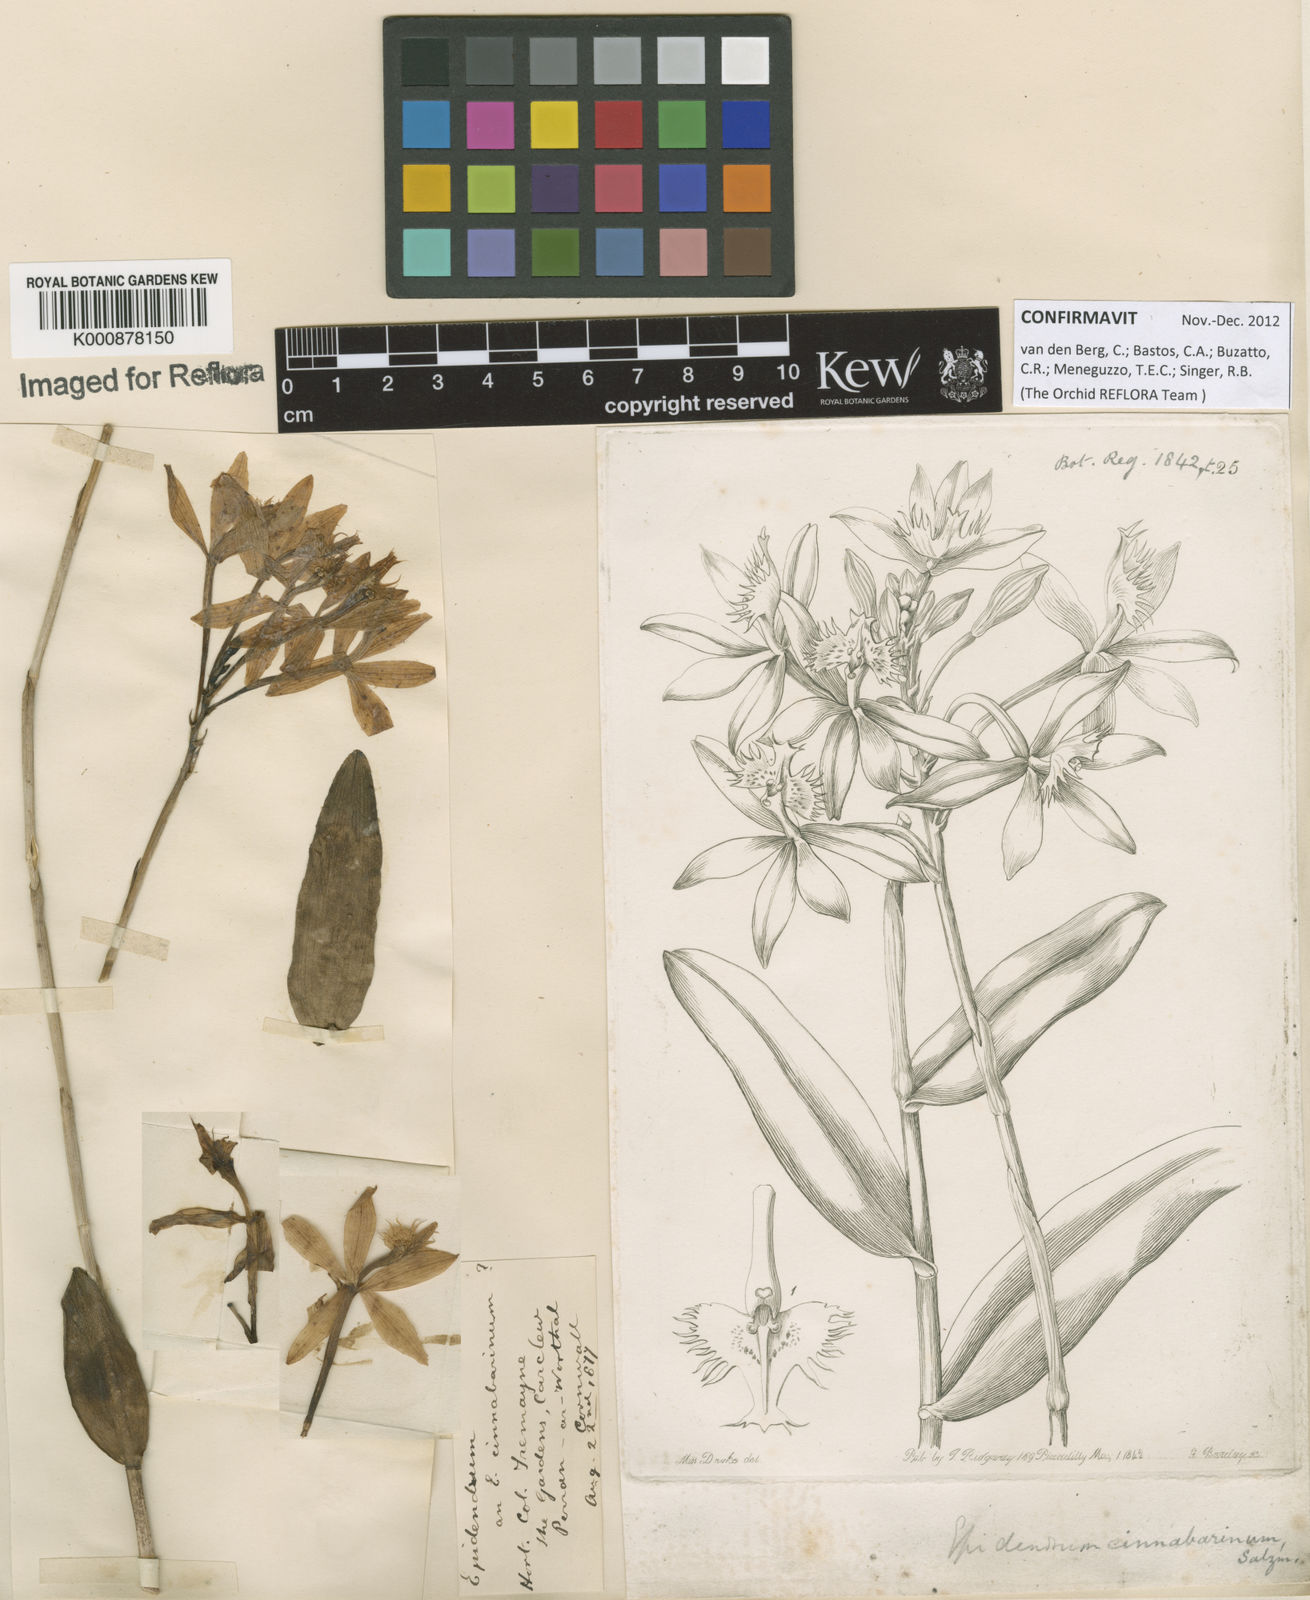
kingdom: Plantae
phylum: Tracheophyta
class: Liliopsida
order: Asparagales
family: Orchidaceae
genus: Epidendrum
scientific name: Epidendrum
